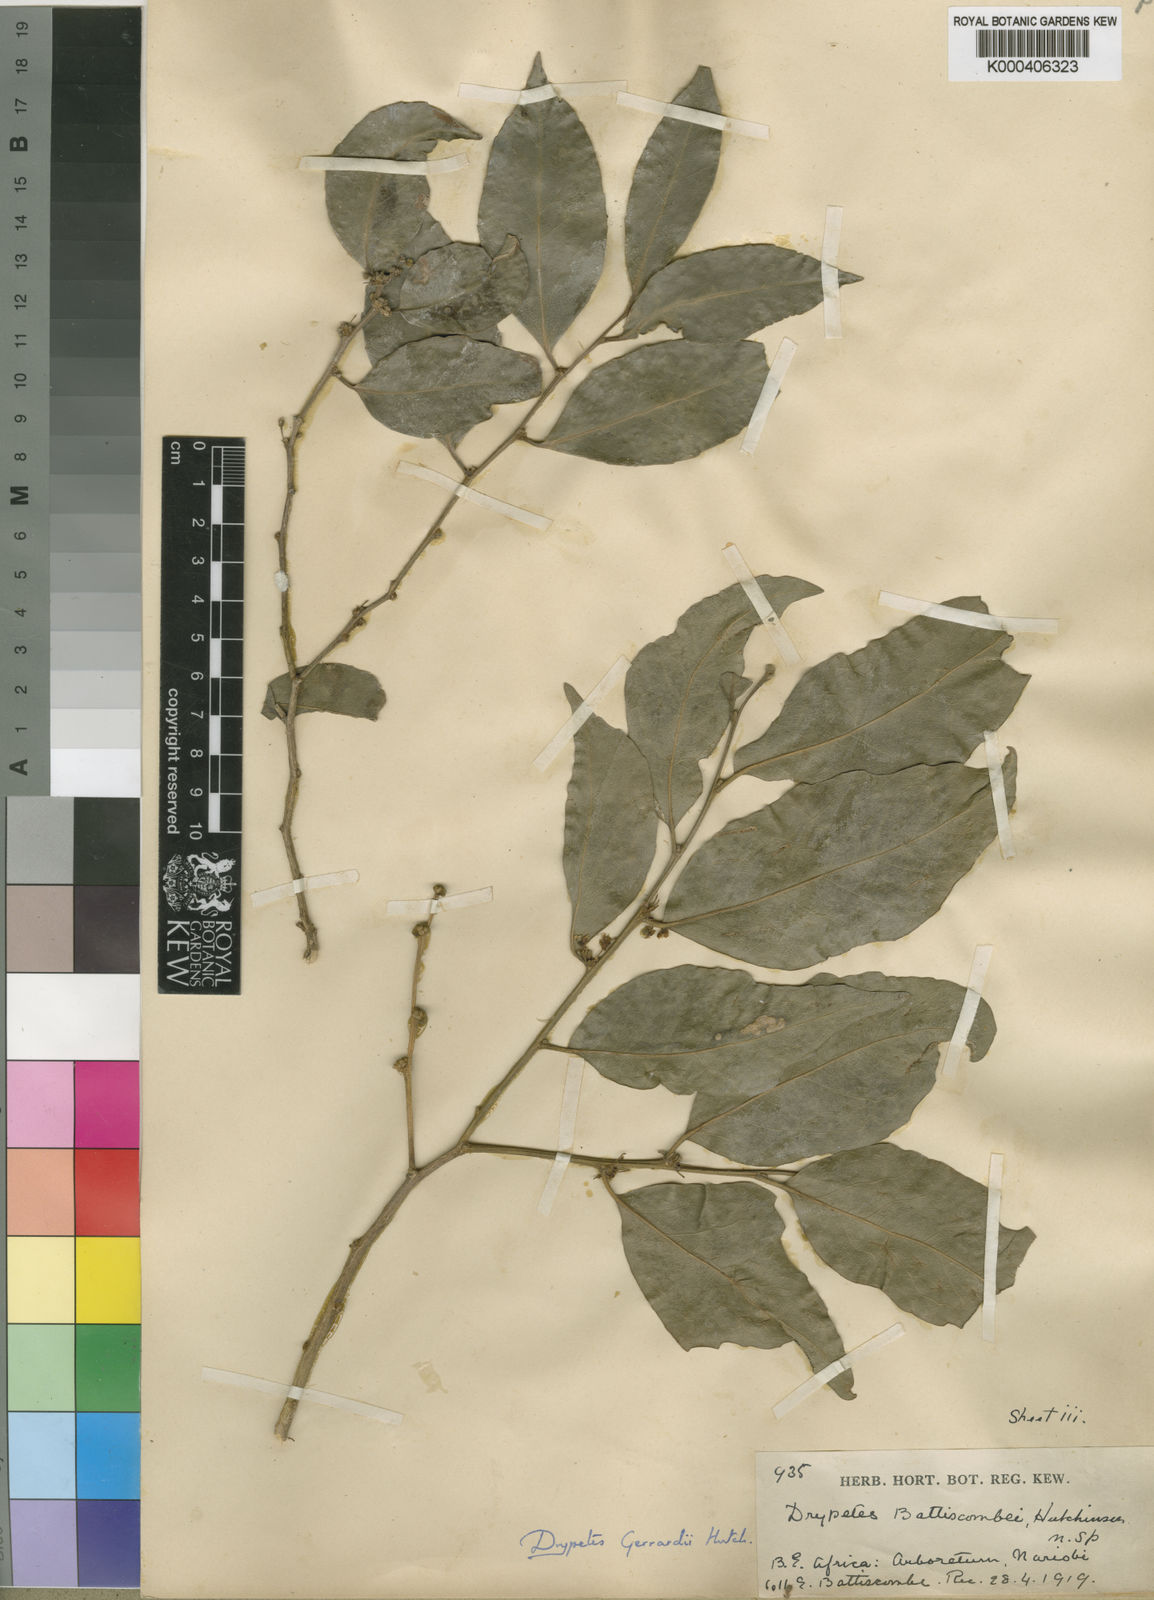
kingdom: Plantae
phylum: Tracheophyta
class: Magnoliopsida
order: Malpighiales
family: Putranjivaceae
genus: Drypetes
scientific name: Drypetes gerrardii
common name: Forest ironplum
